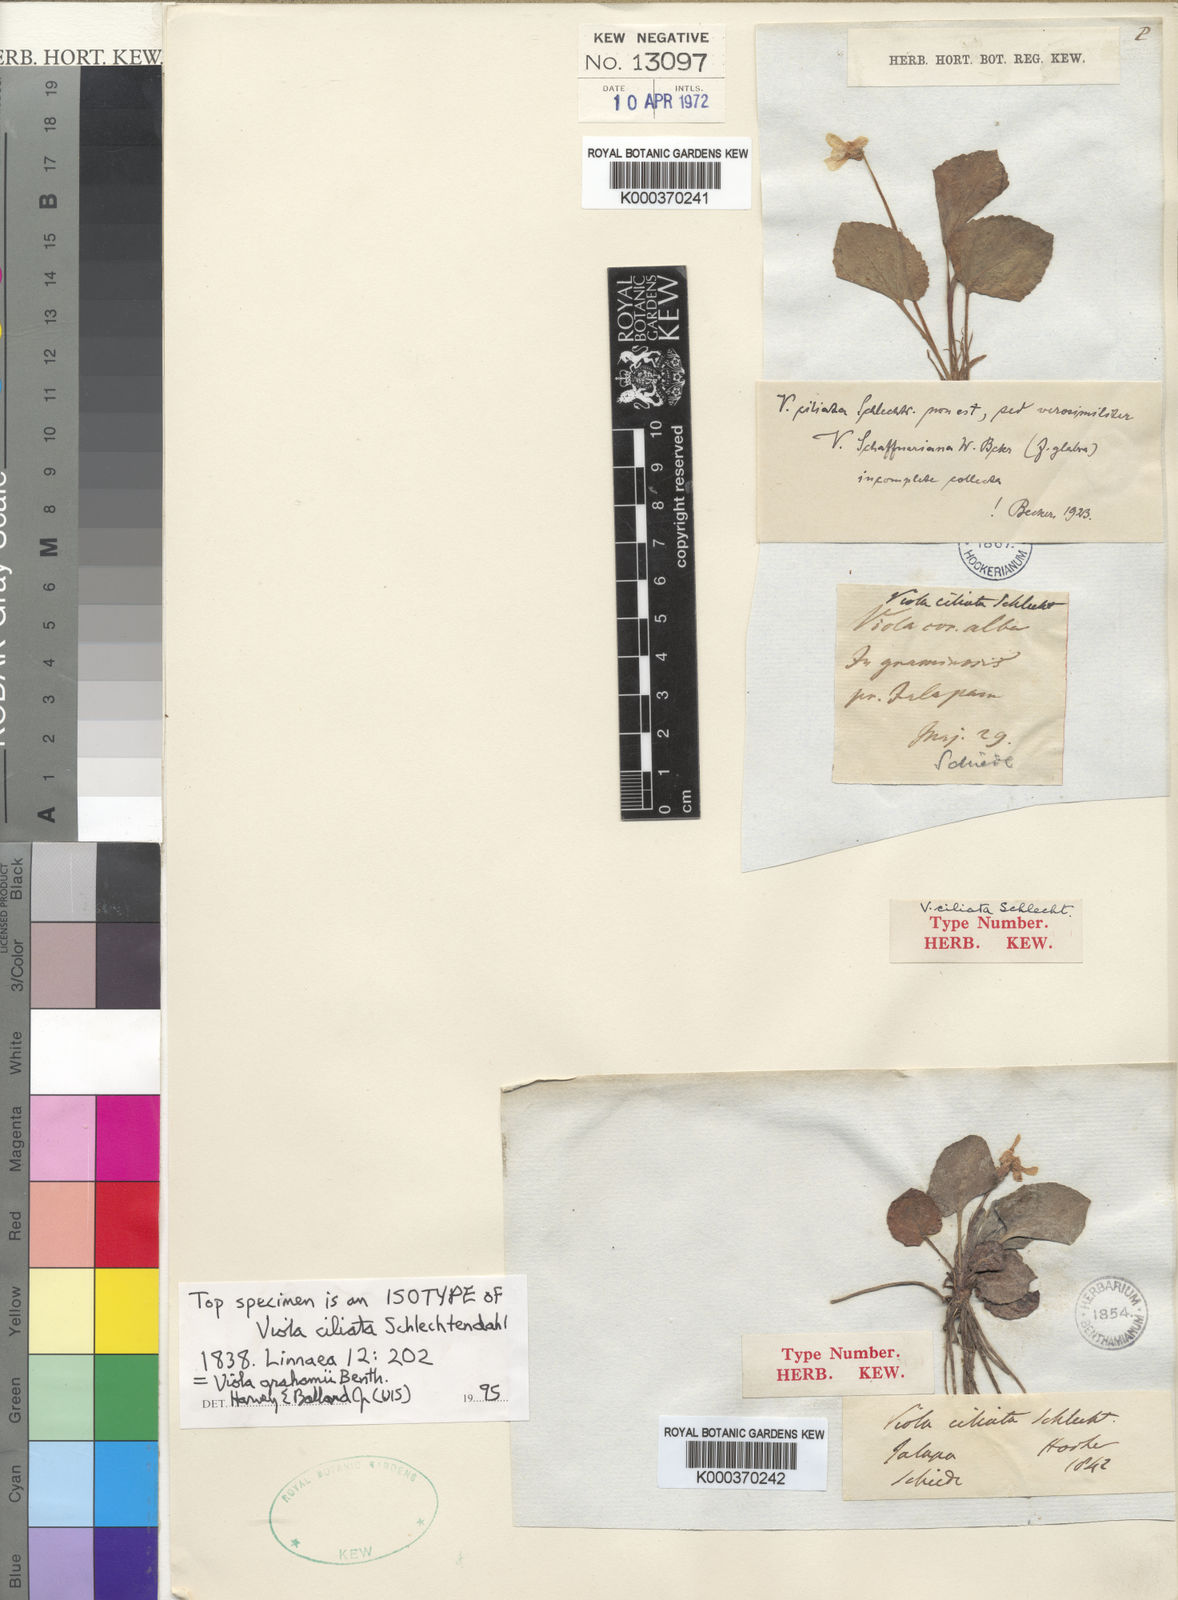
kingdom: Plantae
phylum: Tracheophyta
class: Magnoliopsida
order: Malpighiales
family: Violaceae
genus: Viola
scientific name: Viola cucullata
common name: Marsh blue violet
